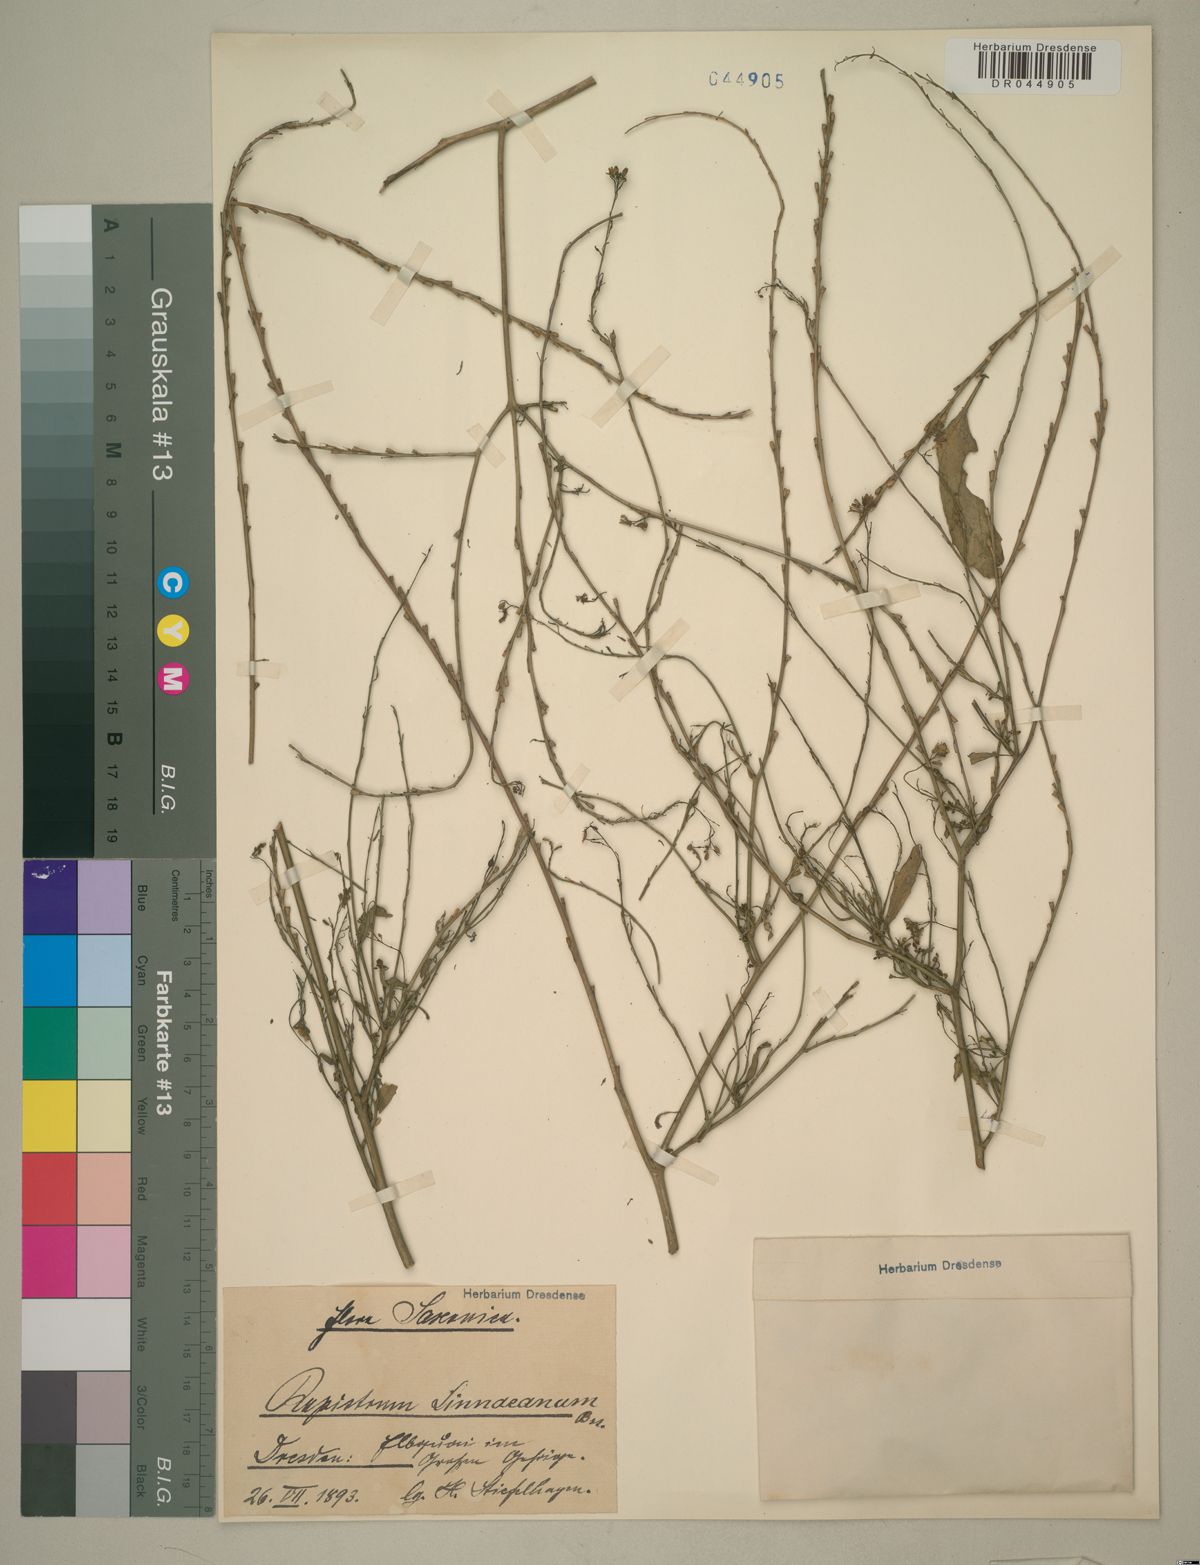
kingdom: Plantae
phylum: Tracheophyta
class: Magnoliopsida
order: Brassicales
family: Brassicaceae
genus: Rapistrum
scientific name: Rapistrum rugosum
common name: Annual bastardcabbage
